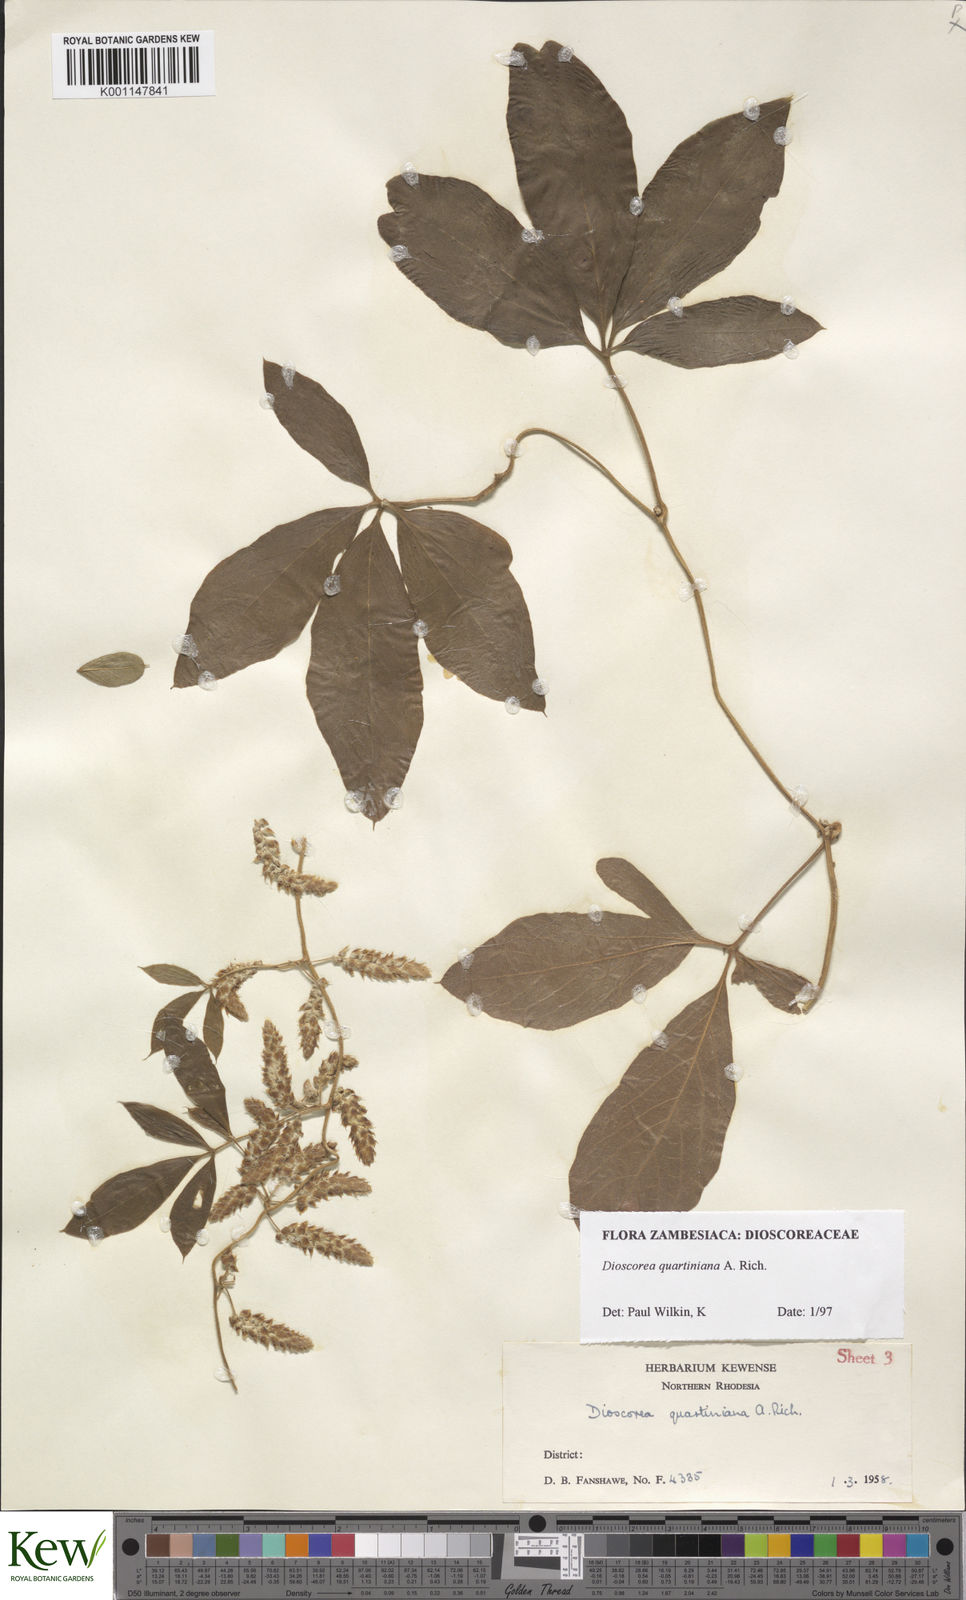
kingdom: Plantae
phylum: Tracheophyta
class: Liliopsida
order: Dioscoreales
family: Dioscoreaceae
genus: Dioscorea
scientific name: Dioscorea quartiniana
